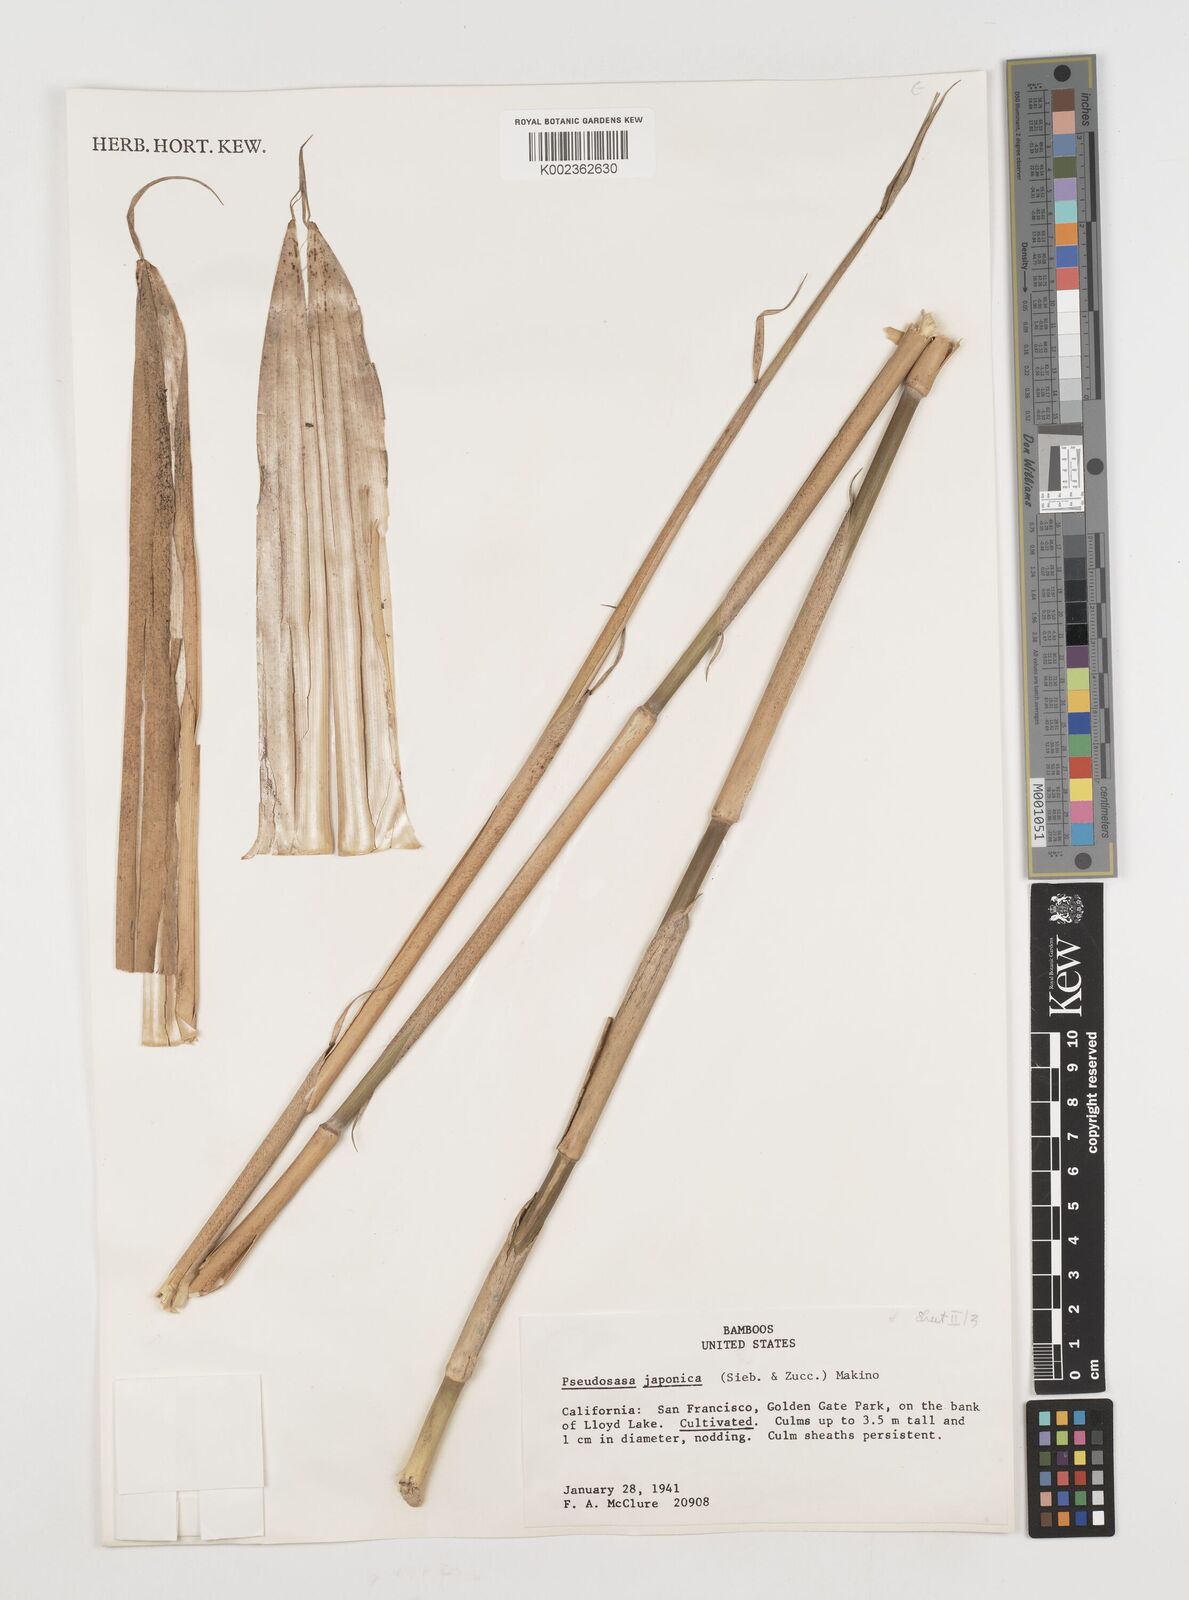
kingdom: Plantae
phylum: Tracheophyta
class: Liliopsida
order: Poales
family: Poaceae
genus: Pseudosasa
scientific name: Pseudosasa japonica
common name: Arrow bamboo
